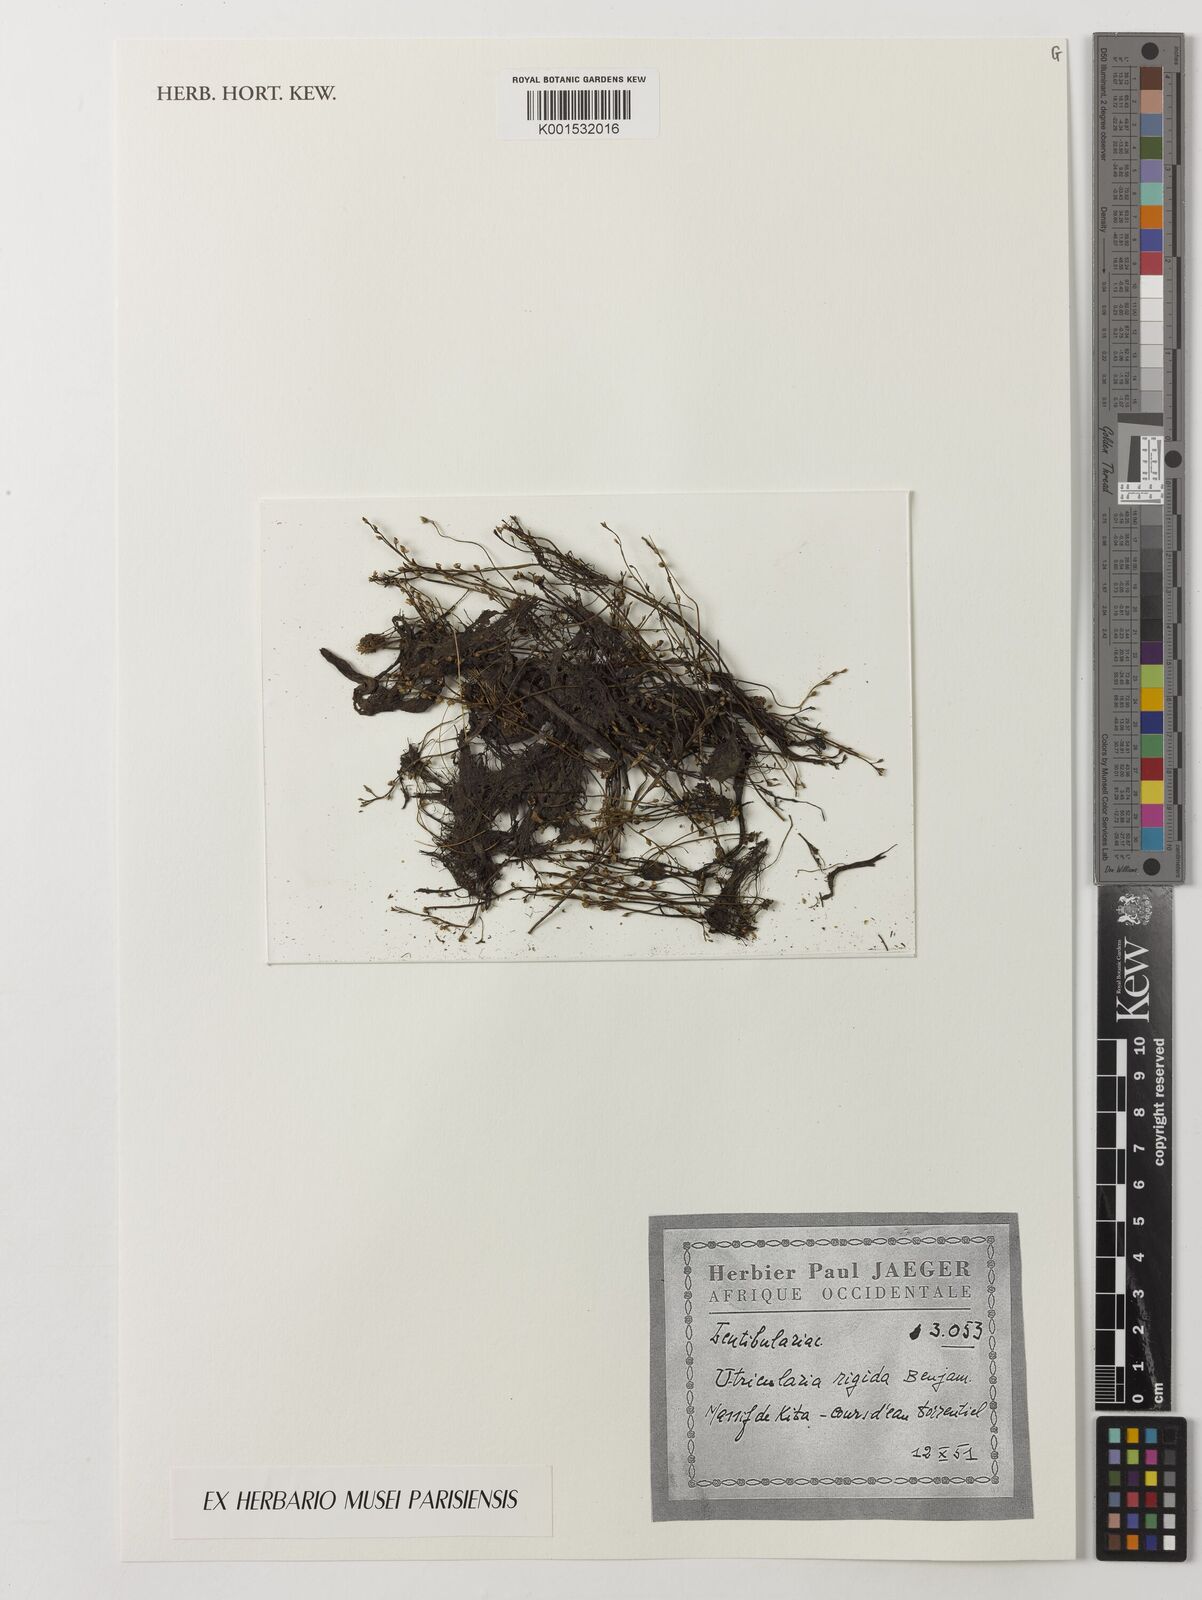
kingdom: Plantae
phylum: Tracheophyta
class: Magnoliopsida
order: Lamiales
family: Lentibulariaceae
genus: Utricularia
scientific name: Utricularia rigida
